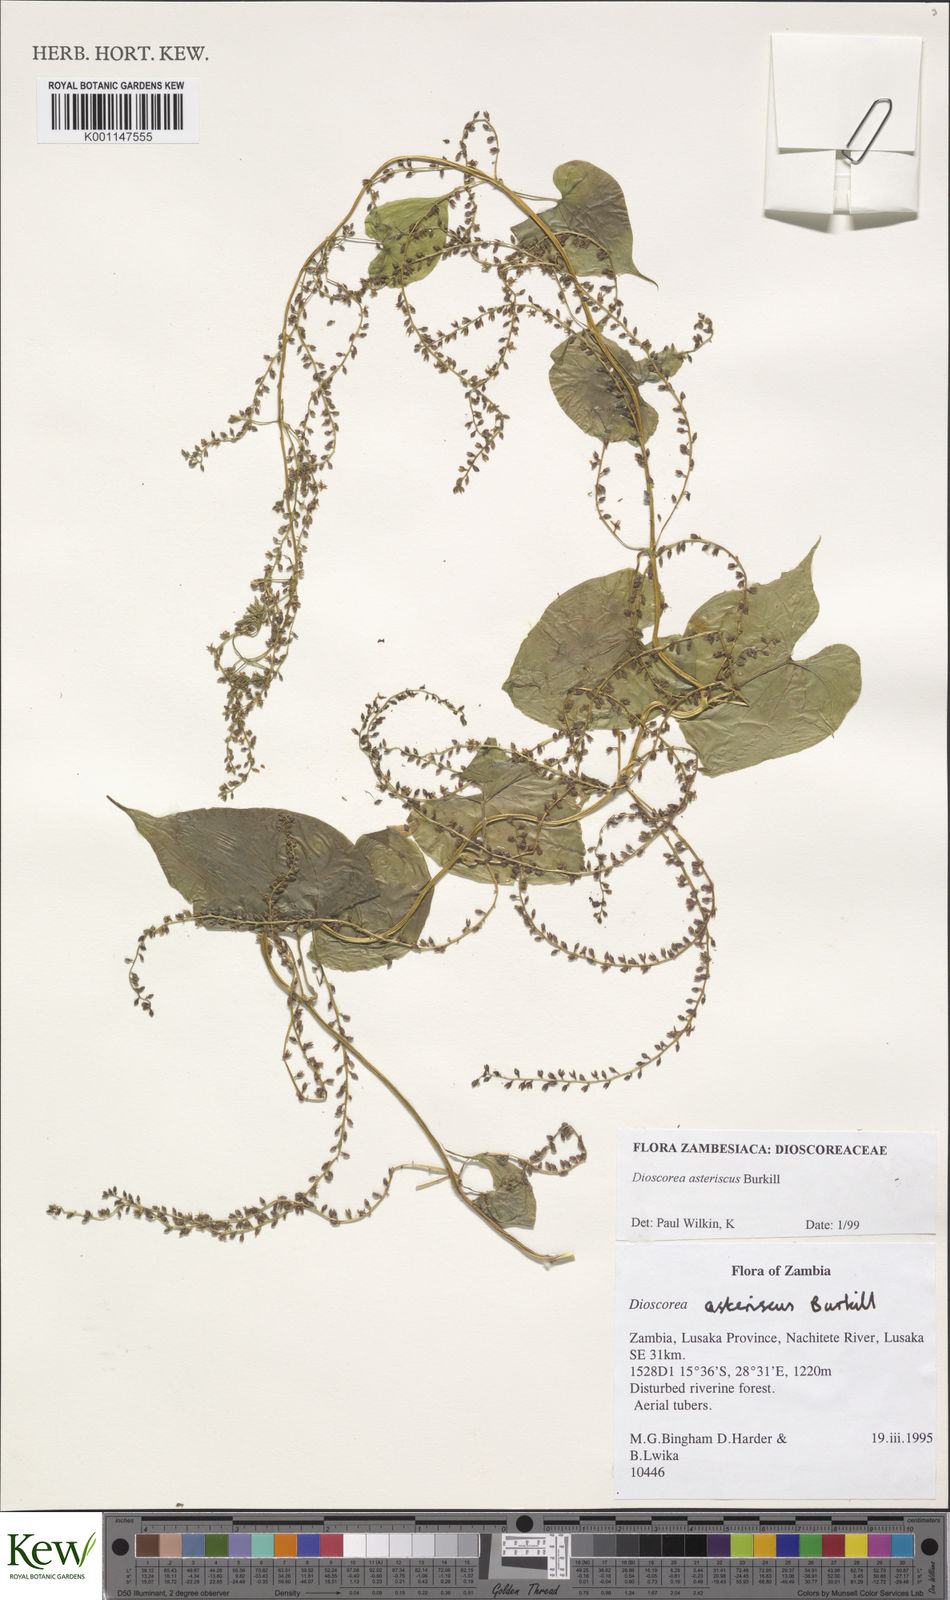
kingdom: Plantae
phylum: Tracheophyta
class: Liliopsida
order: Dioscoreales
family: Dioscoreaceae
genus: Dioscorea
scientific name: Dioscorea asteriscus
